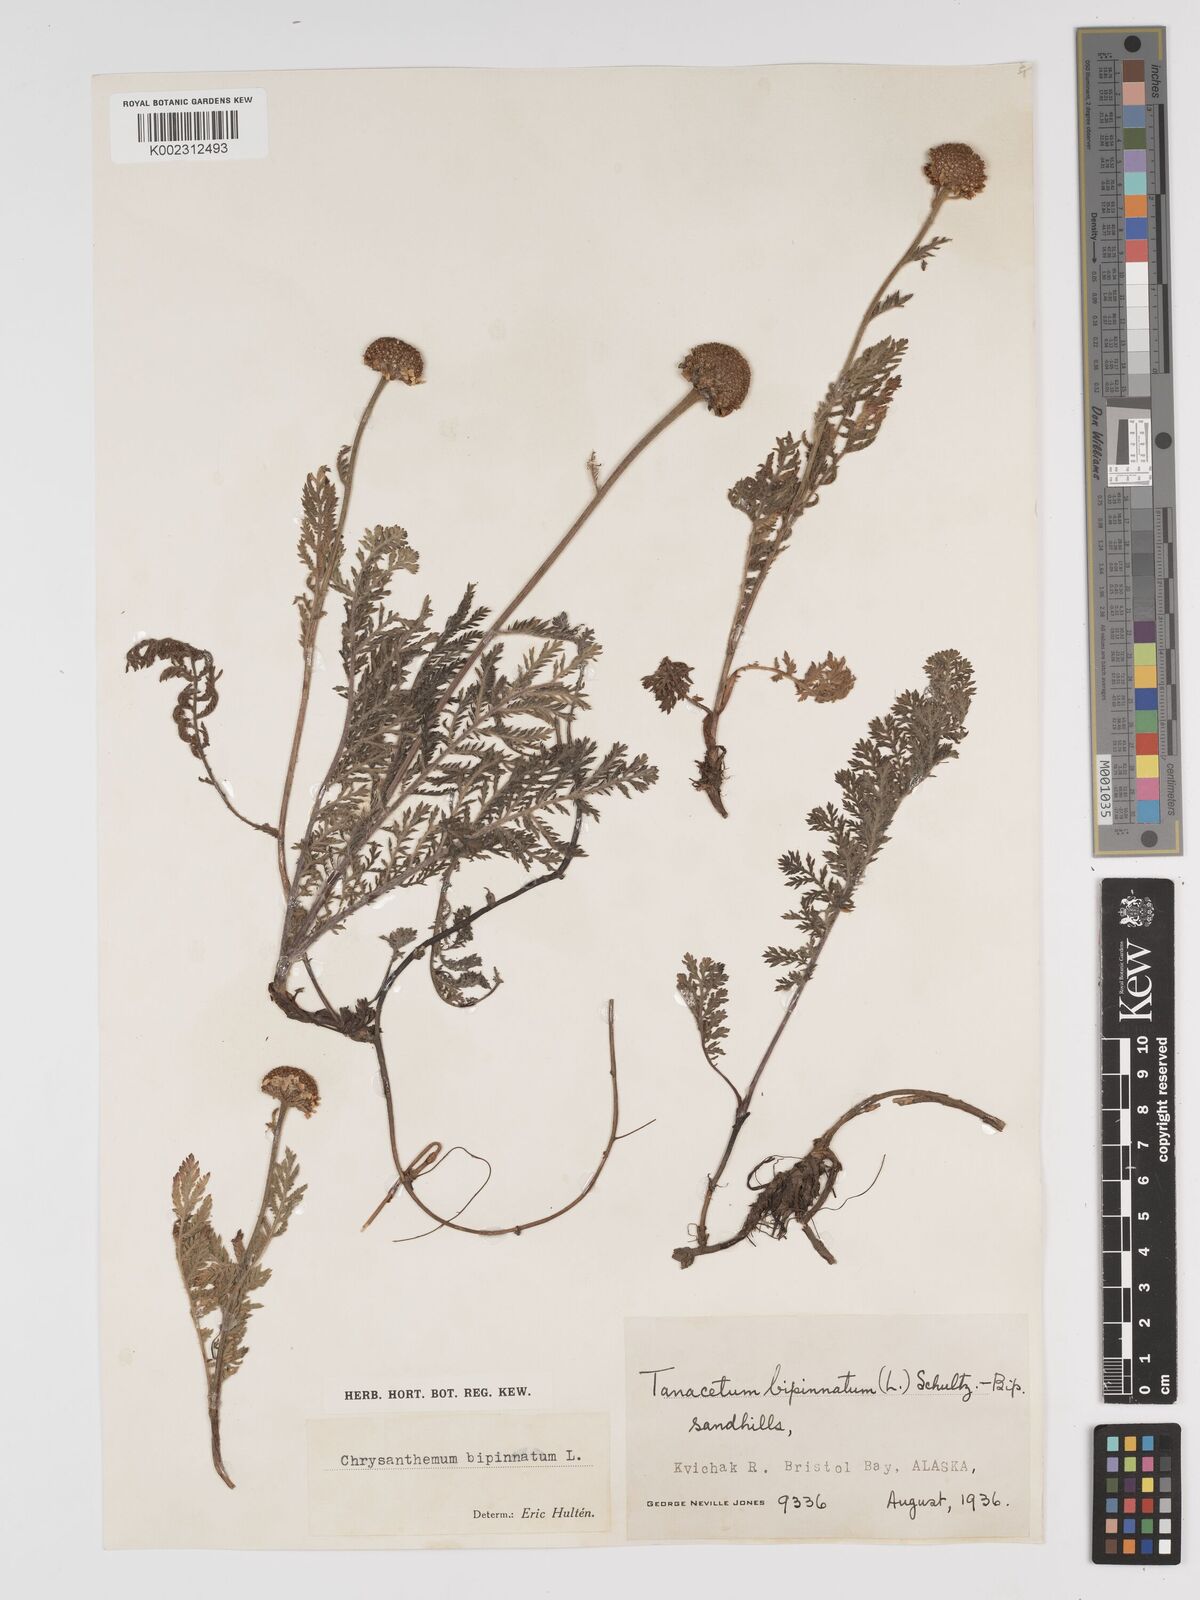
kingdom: Plantae
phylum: Tracheophyta
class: Magnoliopsida
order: Asterales
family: Asteraceae
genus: Tanacetum
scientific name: Tanacetum bipinnatum
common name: Dwarf tansy
